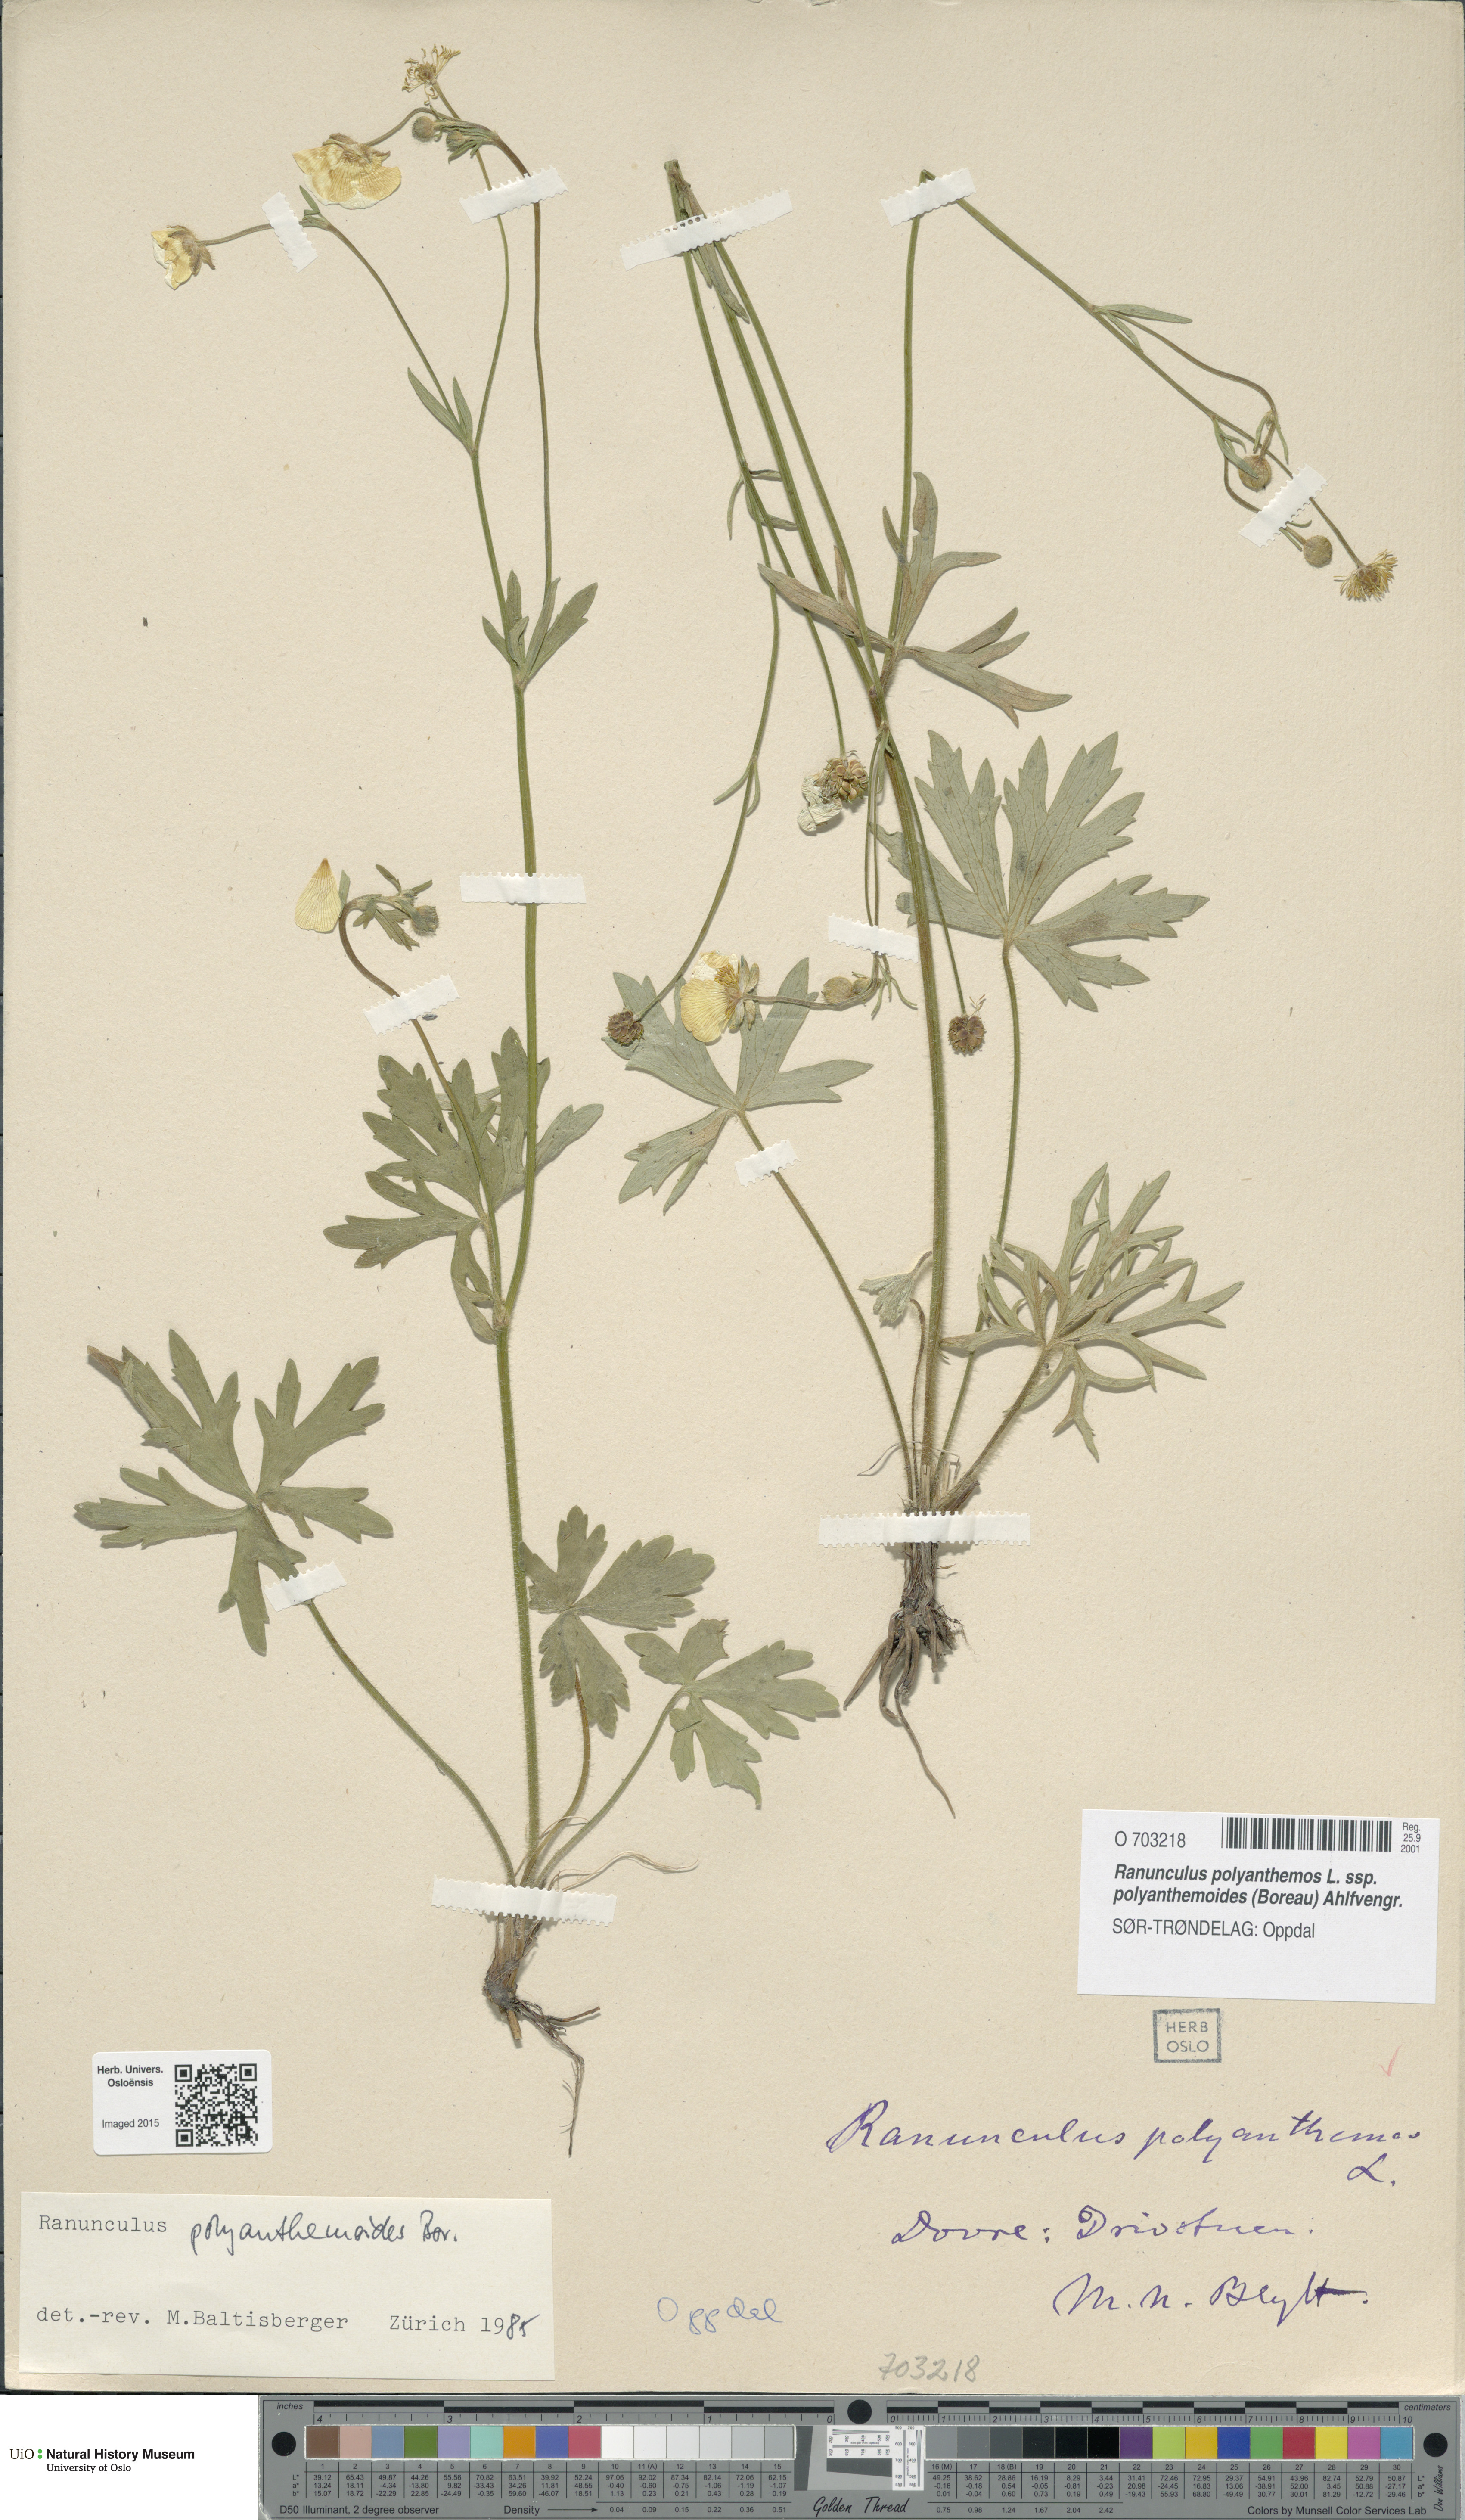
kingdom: Plantae
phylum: Tracheophyta
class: Magnoliopsida
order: Ranunculales
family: Ranunculaceae
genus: Ranunculus
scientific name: Ranunculus polyanthemos
